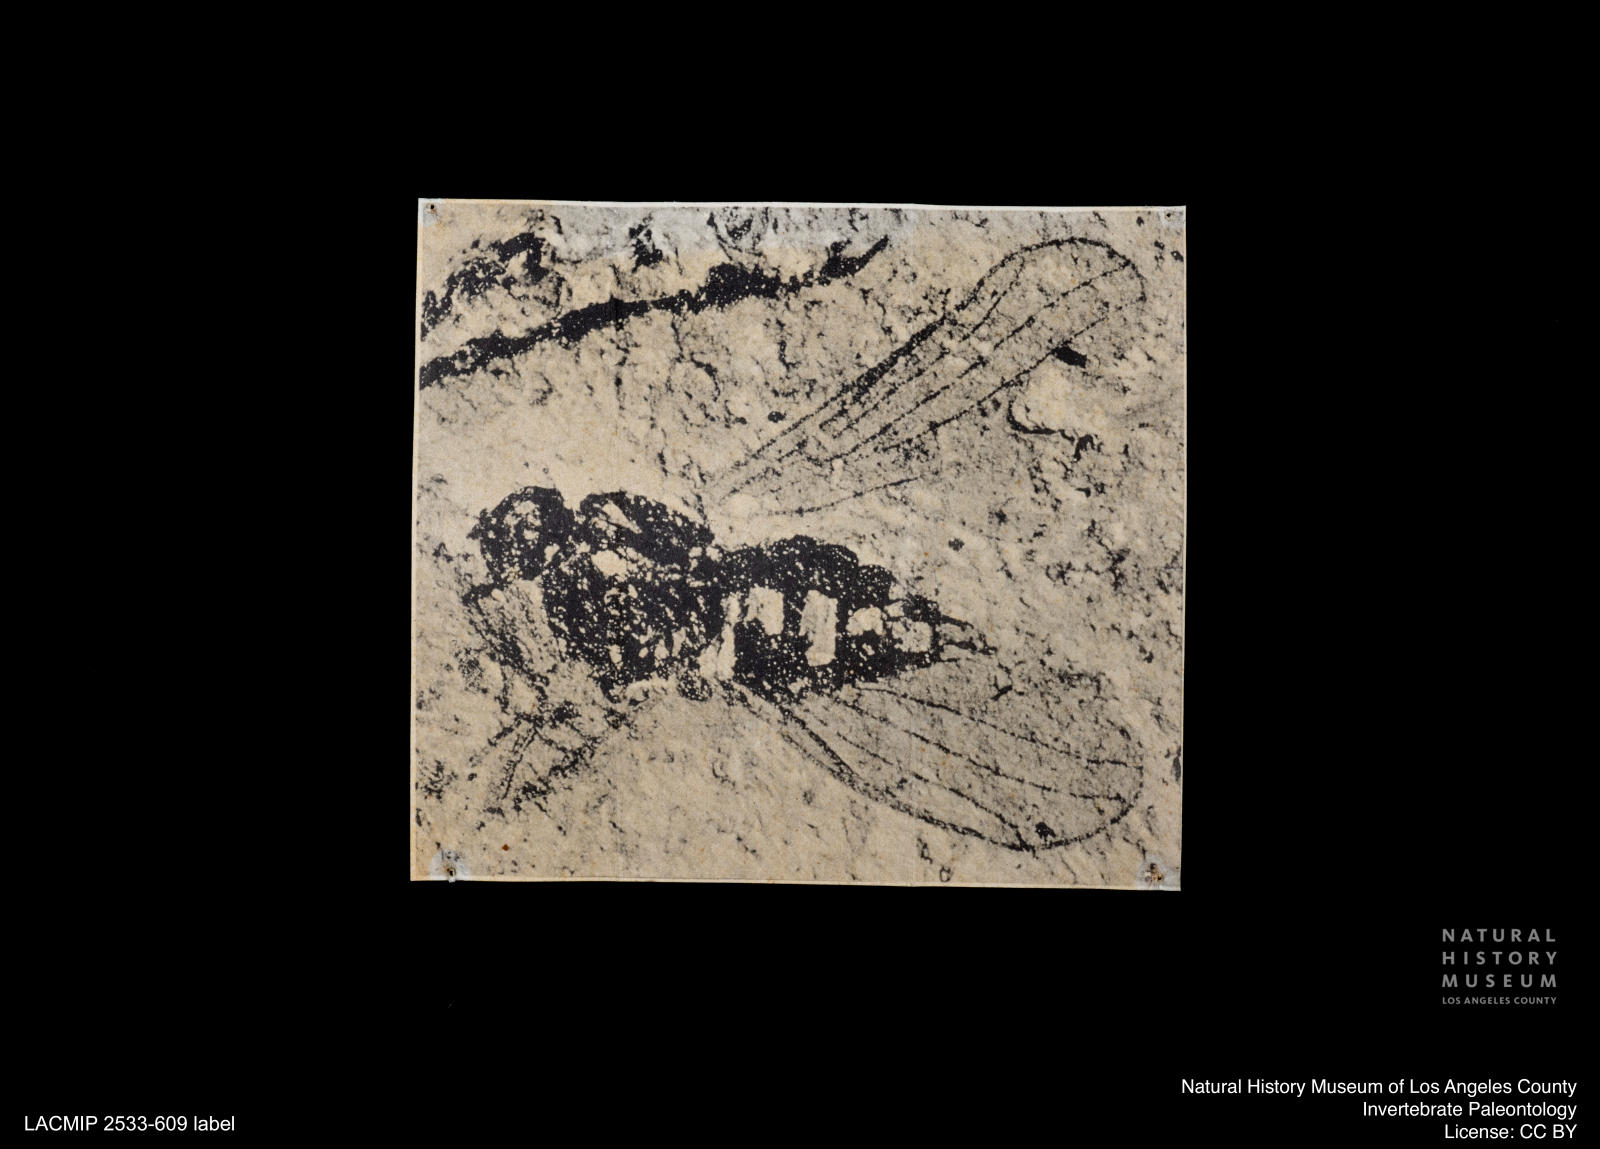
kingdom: Animalia
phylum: Arthropoda
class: Insecta
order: Diptera
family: Sepsidae
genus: Sepsis
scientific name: Sepsis atra
